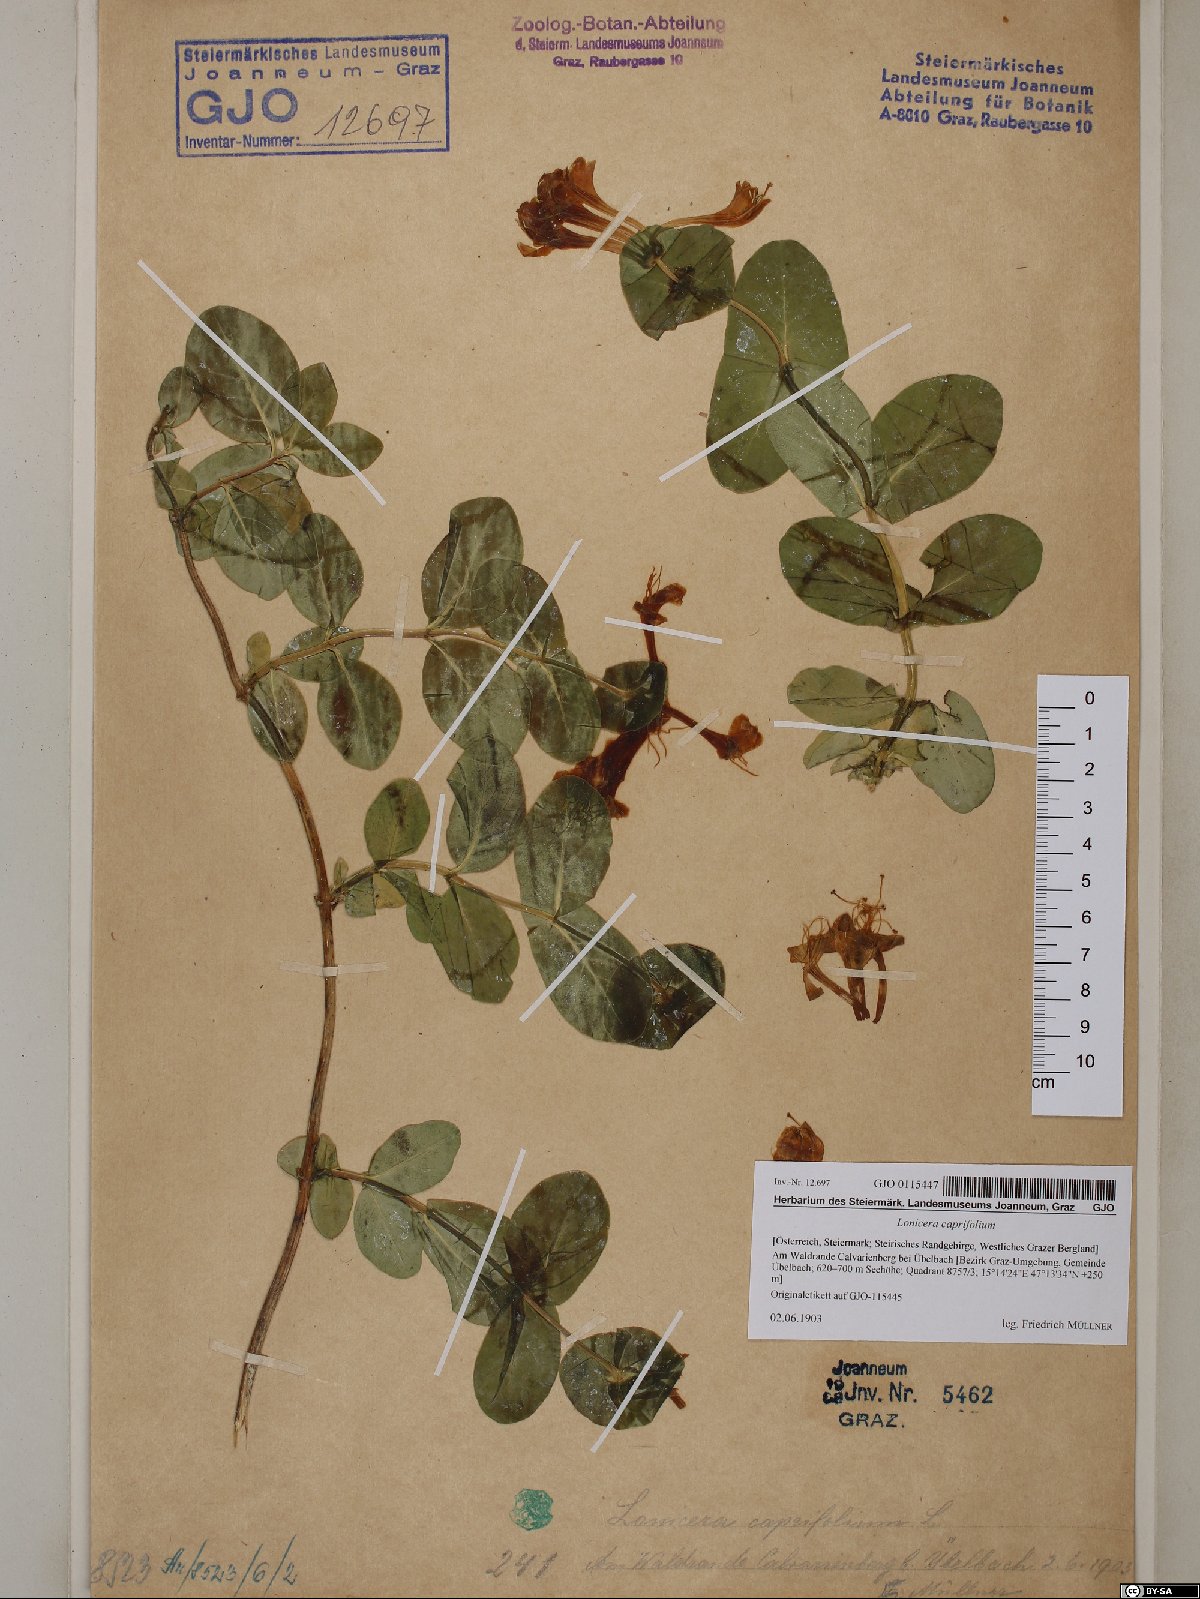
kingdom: Plantae
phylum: Tracheophyta
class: Magnoliopsida
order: Dipsacales
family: Caprifoliaceae
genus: Lonicera
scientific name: Lonicera caprifolium
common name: Perfoliate honeysuckle
